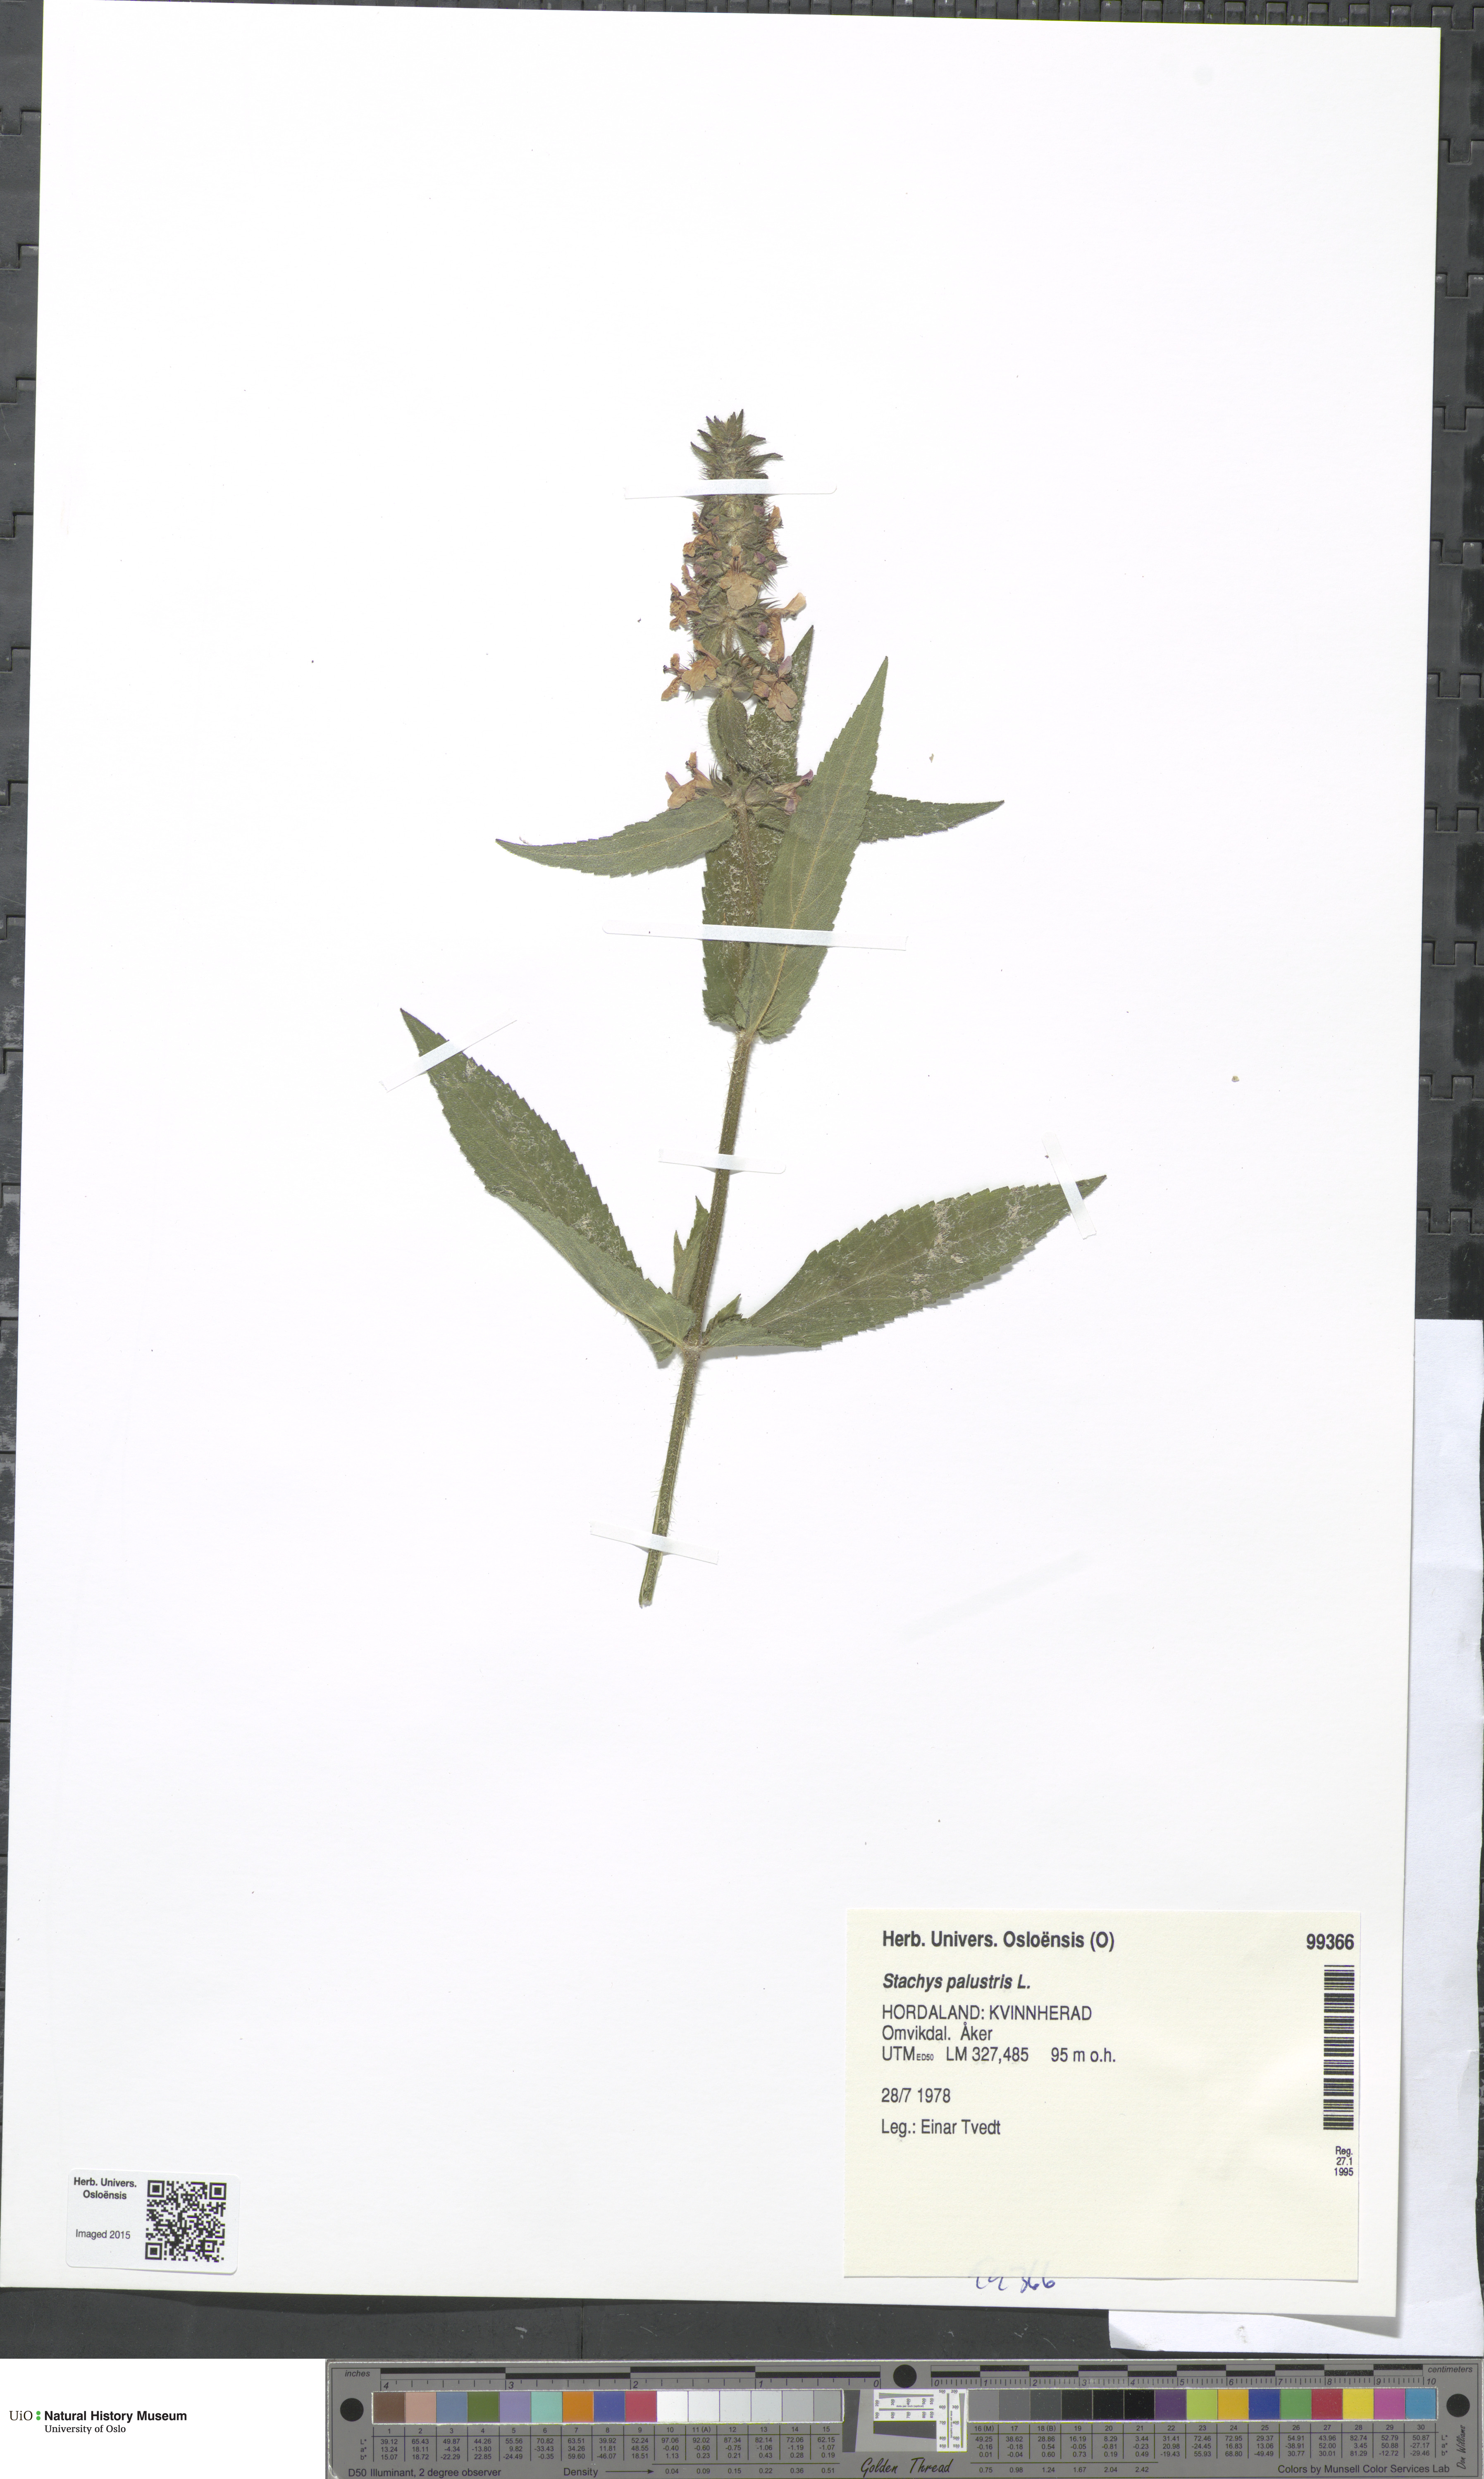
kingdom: Plantae
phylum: Tracheophyta
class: Magnoliopsida
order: Lamiales
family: Lamiaceae
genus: Stachys
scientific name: Stachys palustris
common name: Marsh woundwort
